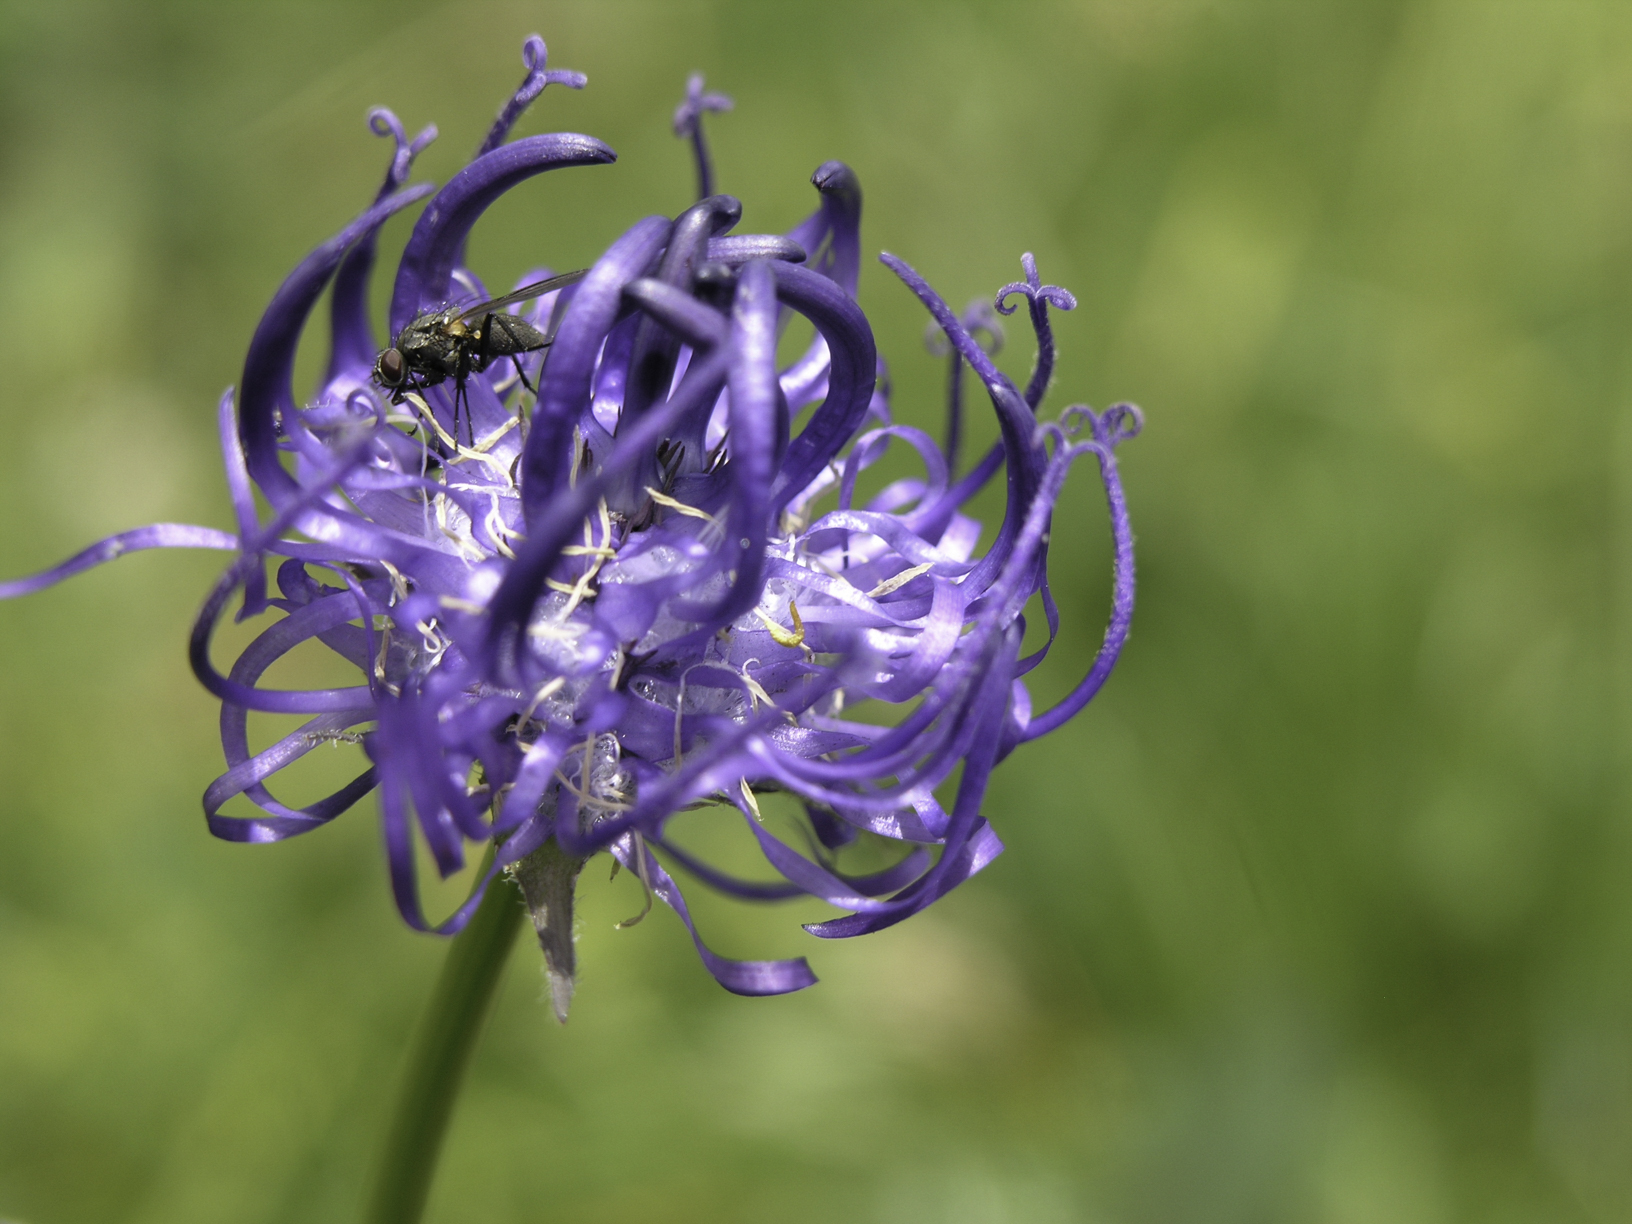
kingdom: Plantae
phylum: Tracheophyta
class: Magnoliopsida
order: Asterales
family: Campanulaceae
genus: Phyteuma
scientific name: Phyteuma orbiculare
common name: Round-headed rampion
